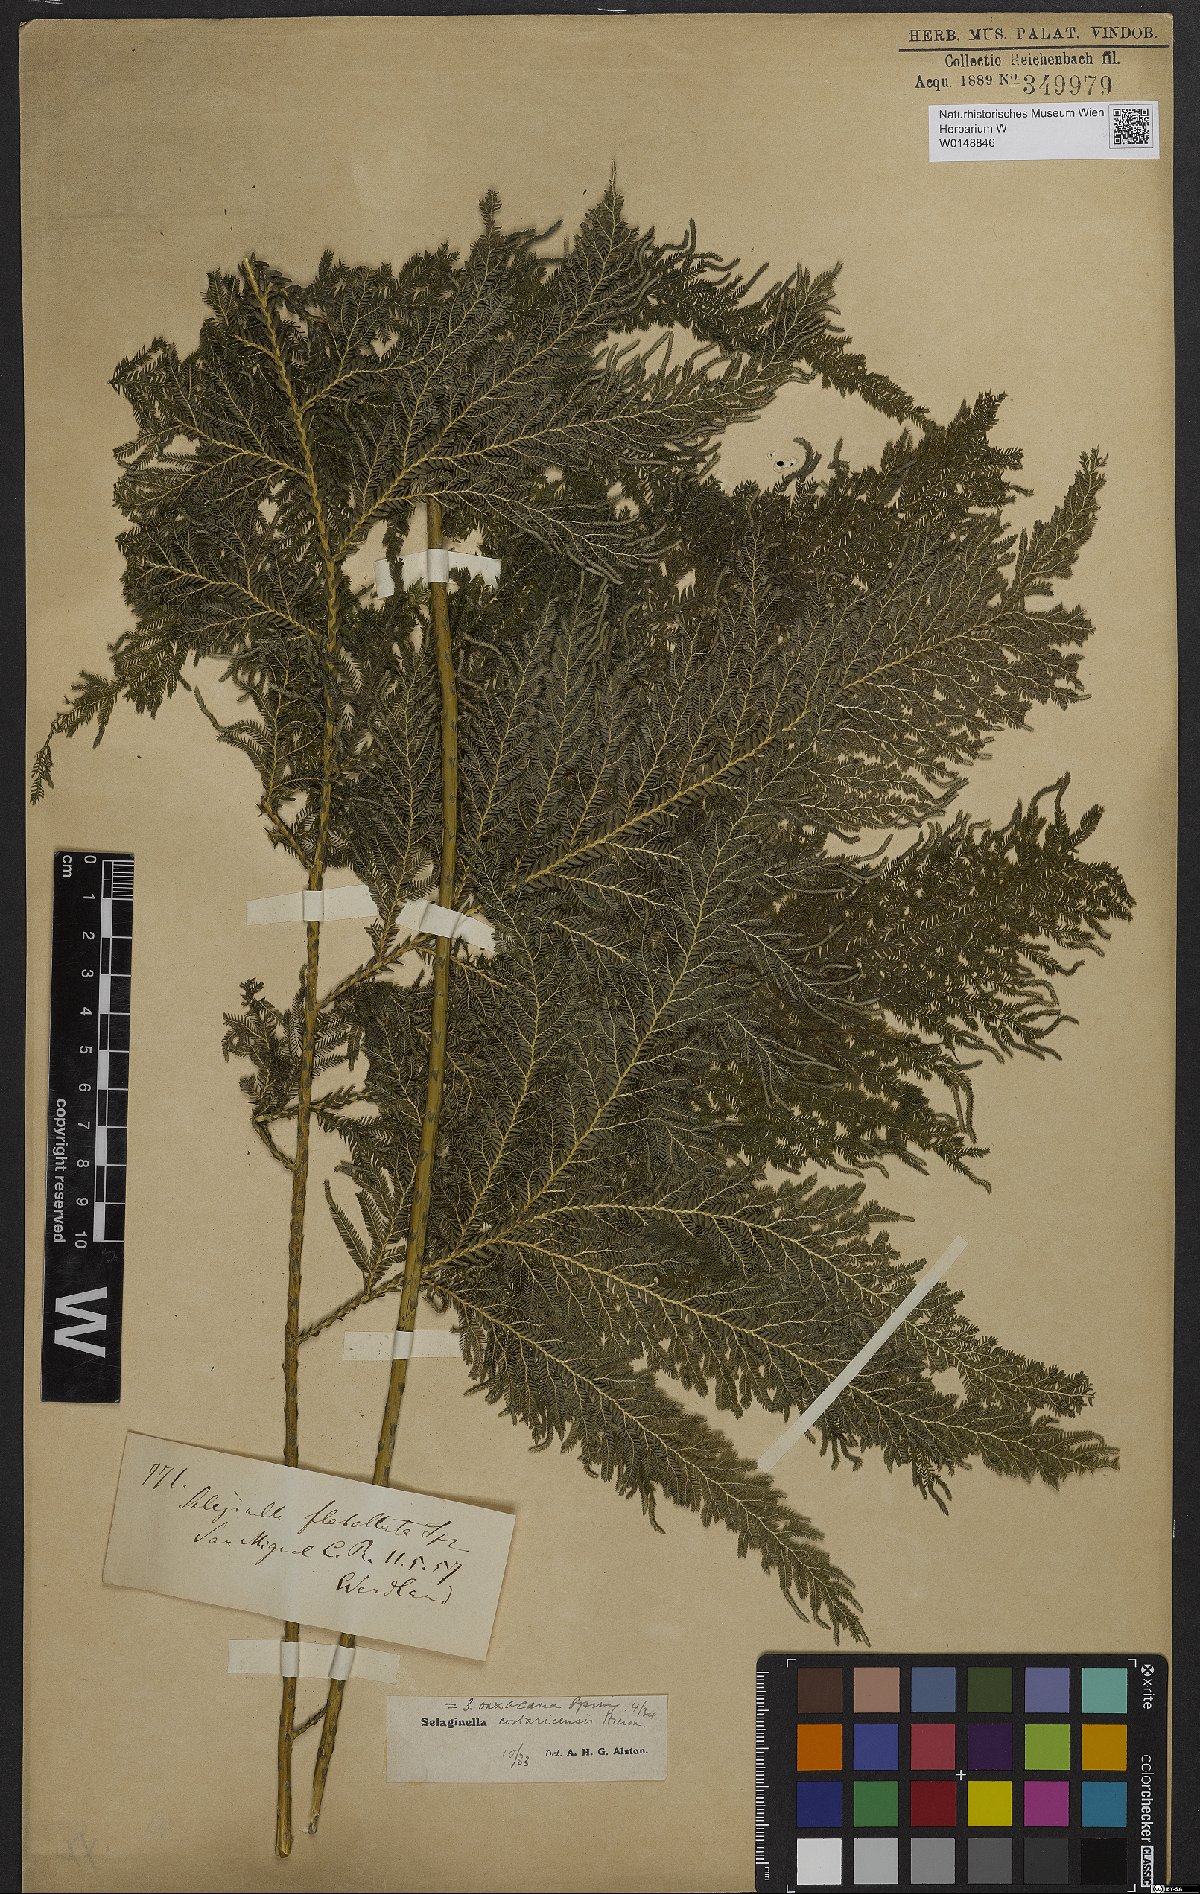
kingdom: Plantae
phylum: Tracheophyta
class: Lycopodiopsida
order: Selaginellales
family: Selaginellaceae
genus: Selaginella
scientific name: Selaginella oaxacana
